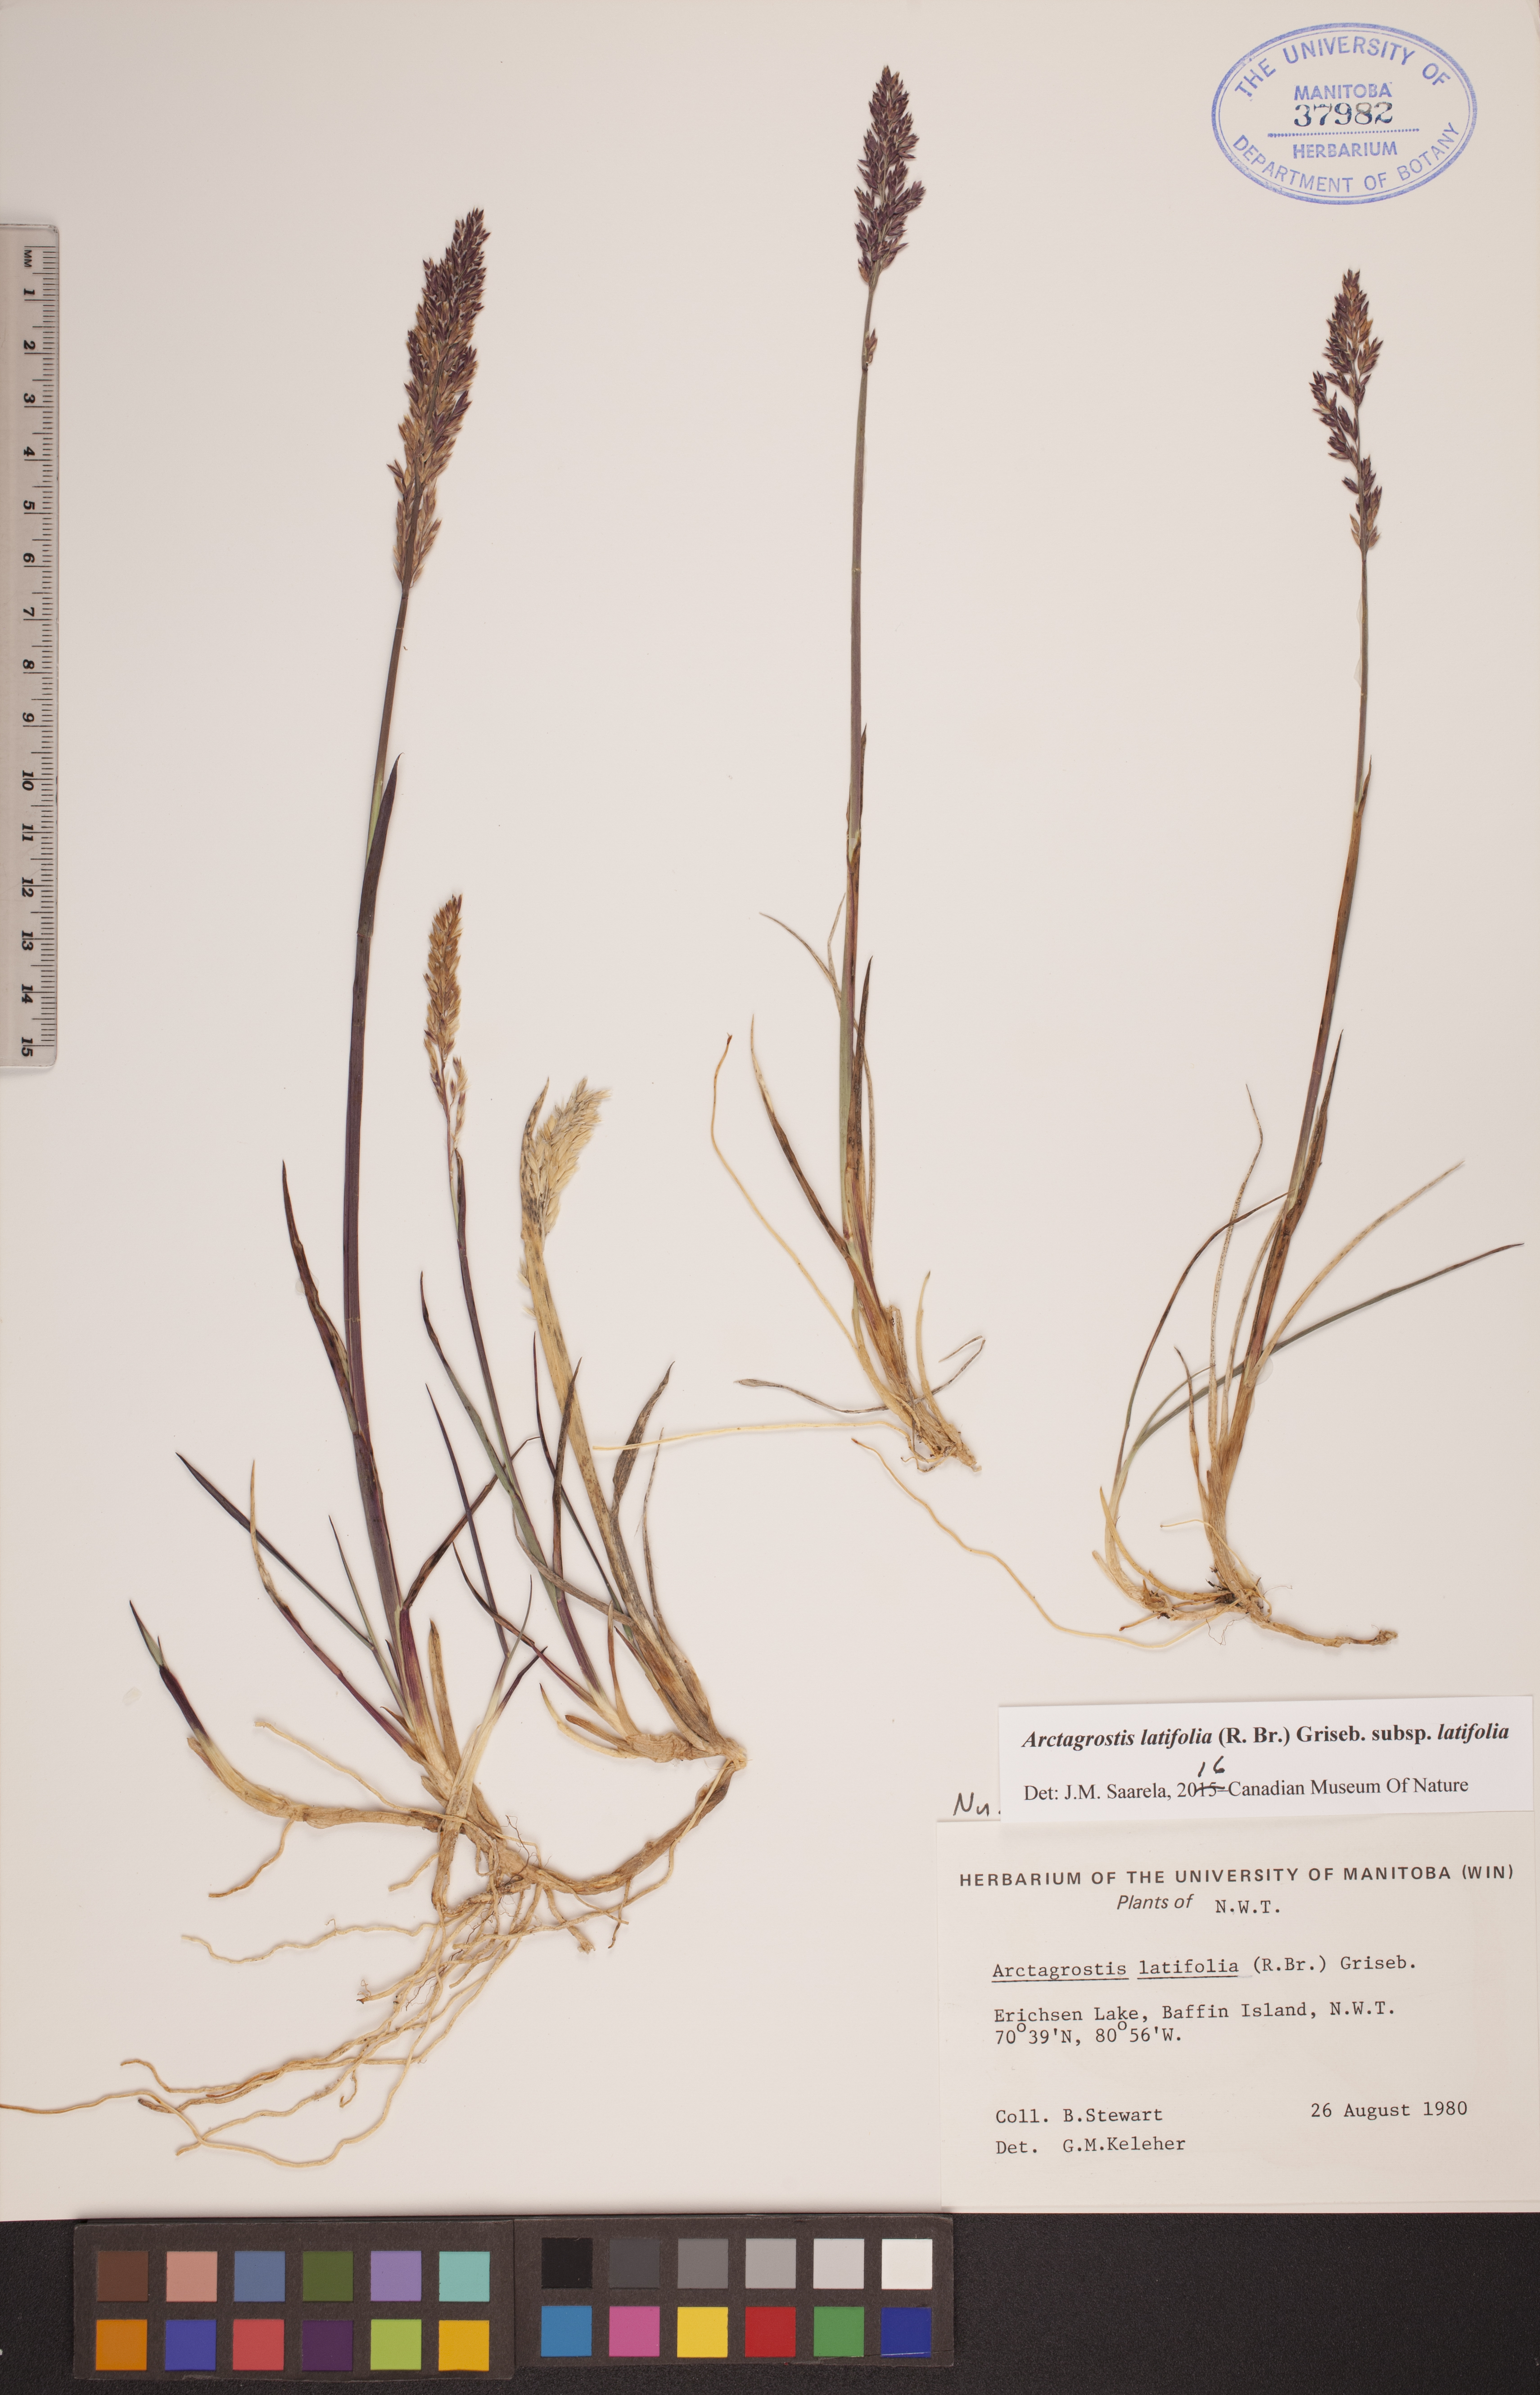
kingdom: Plantae
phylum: Tracheophyta
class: Liliopsida
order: Poales
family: Poaceae
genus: Arctagrostis
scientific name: Arctagrostis latifolia
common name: Arctic grass
